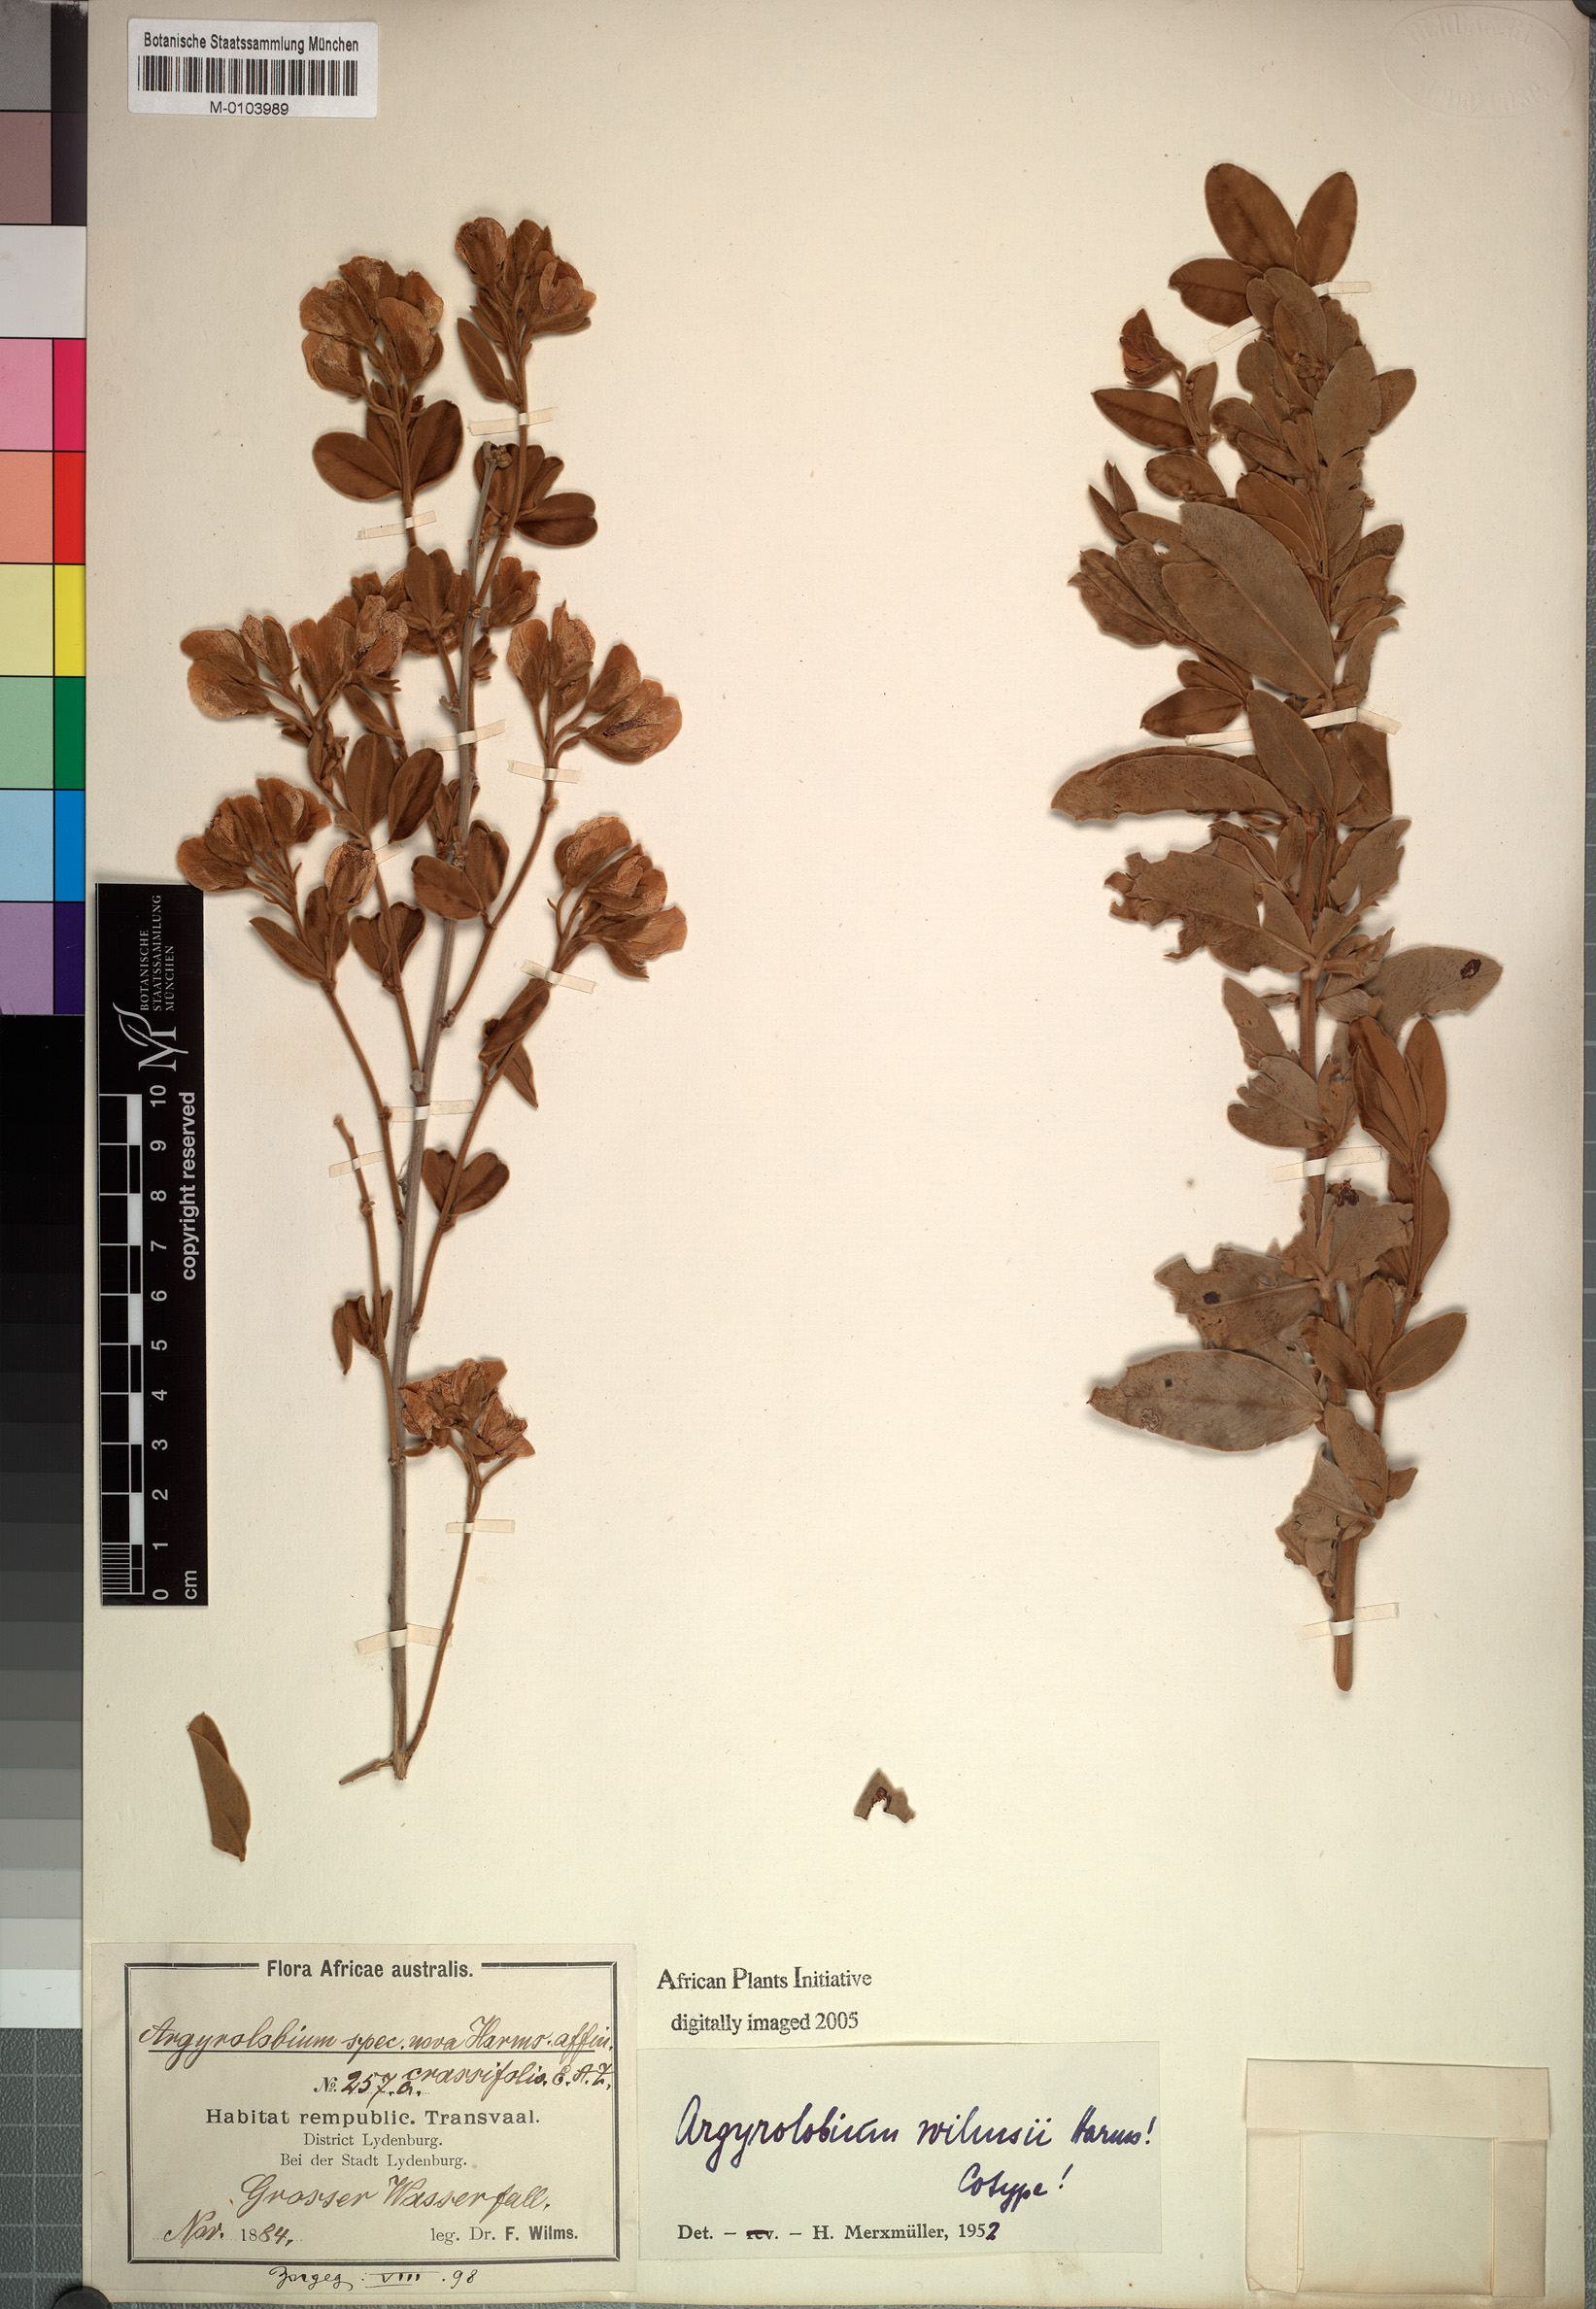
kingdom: Plantae
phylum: Tracheophyta
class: Magnoliopsida
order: Fabales
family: Fabaceae
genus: Argyrolobium
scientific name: Argyrolobium wilmsii
